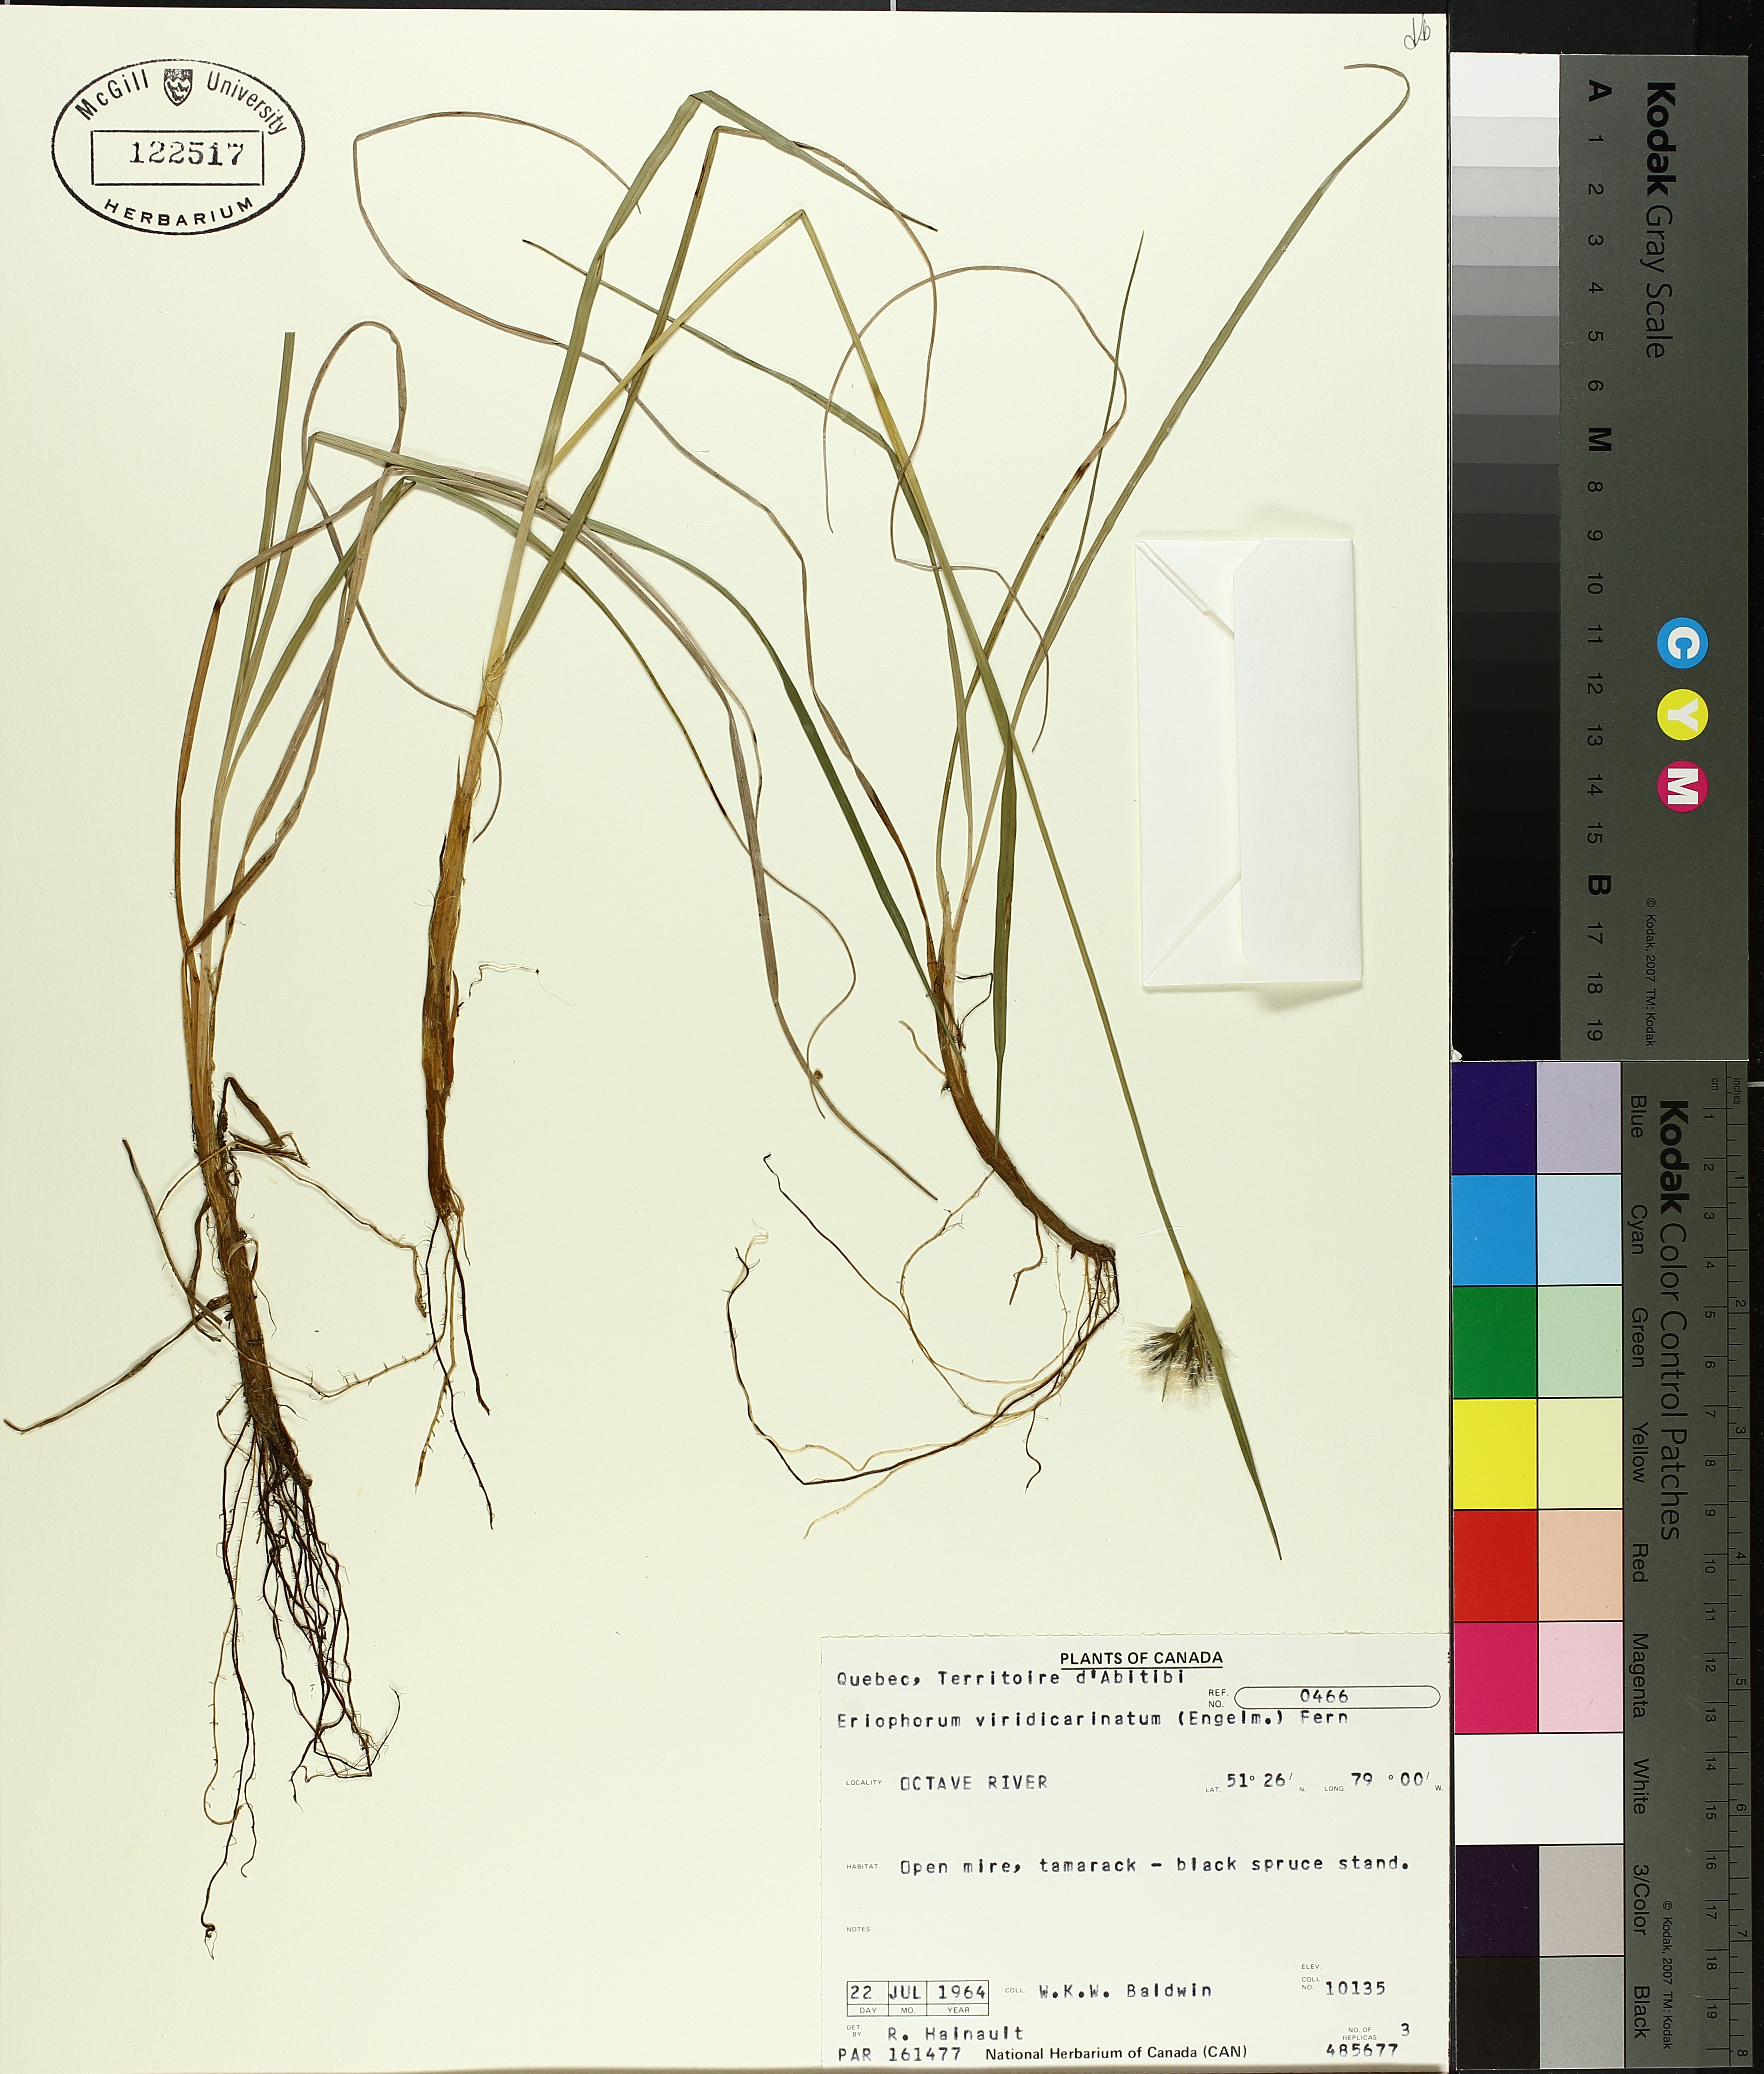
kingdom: Plantae
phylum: Tracheophyta
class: Liliopsida
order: Poales
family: Cyperaceae
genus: Eriophorum
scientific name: Eriophorum viridicarinatum
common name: Green-keeled cottongrass
